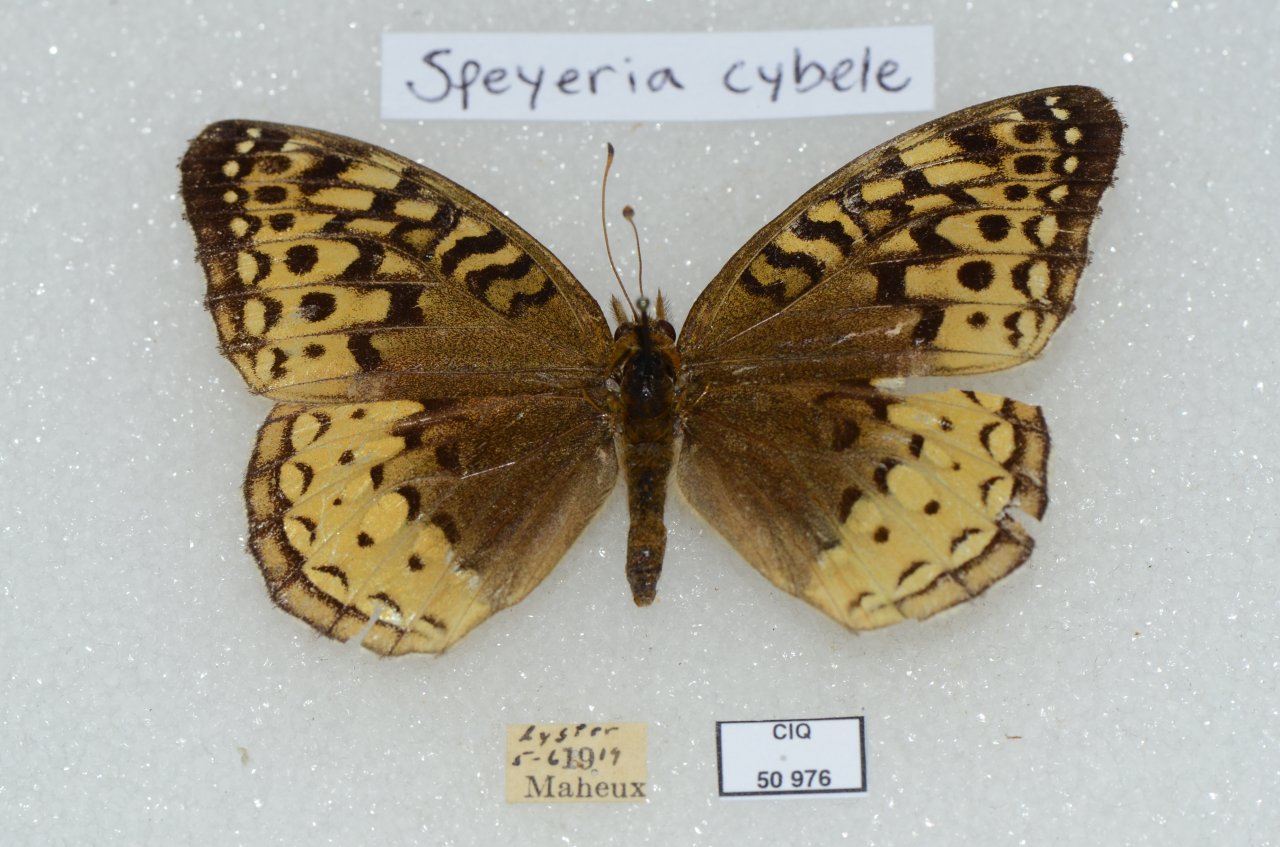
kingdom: Animalia
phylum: Arthropoda
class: Insecta
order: Lepidoptera
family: Nymphalidae
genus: Speyeria
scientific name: Speyeria cybele
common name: Great Spangled Fritillary
